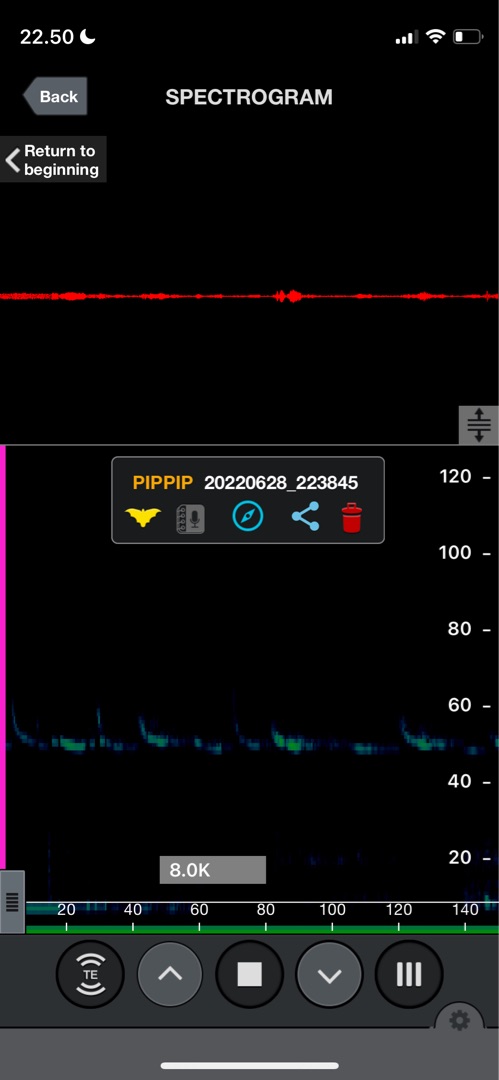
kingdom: Animalia
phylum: Chordata
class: Mammalia
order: Chiroptera
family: Vespertilionidae
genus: Pipistrellus
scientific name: Pipistrellus pipistrellus
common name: Pipistrelflagermus
